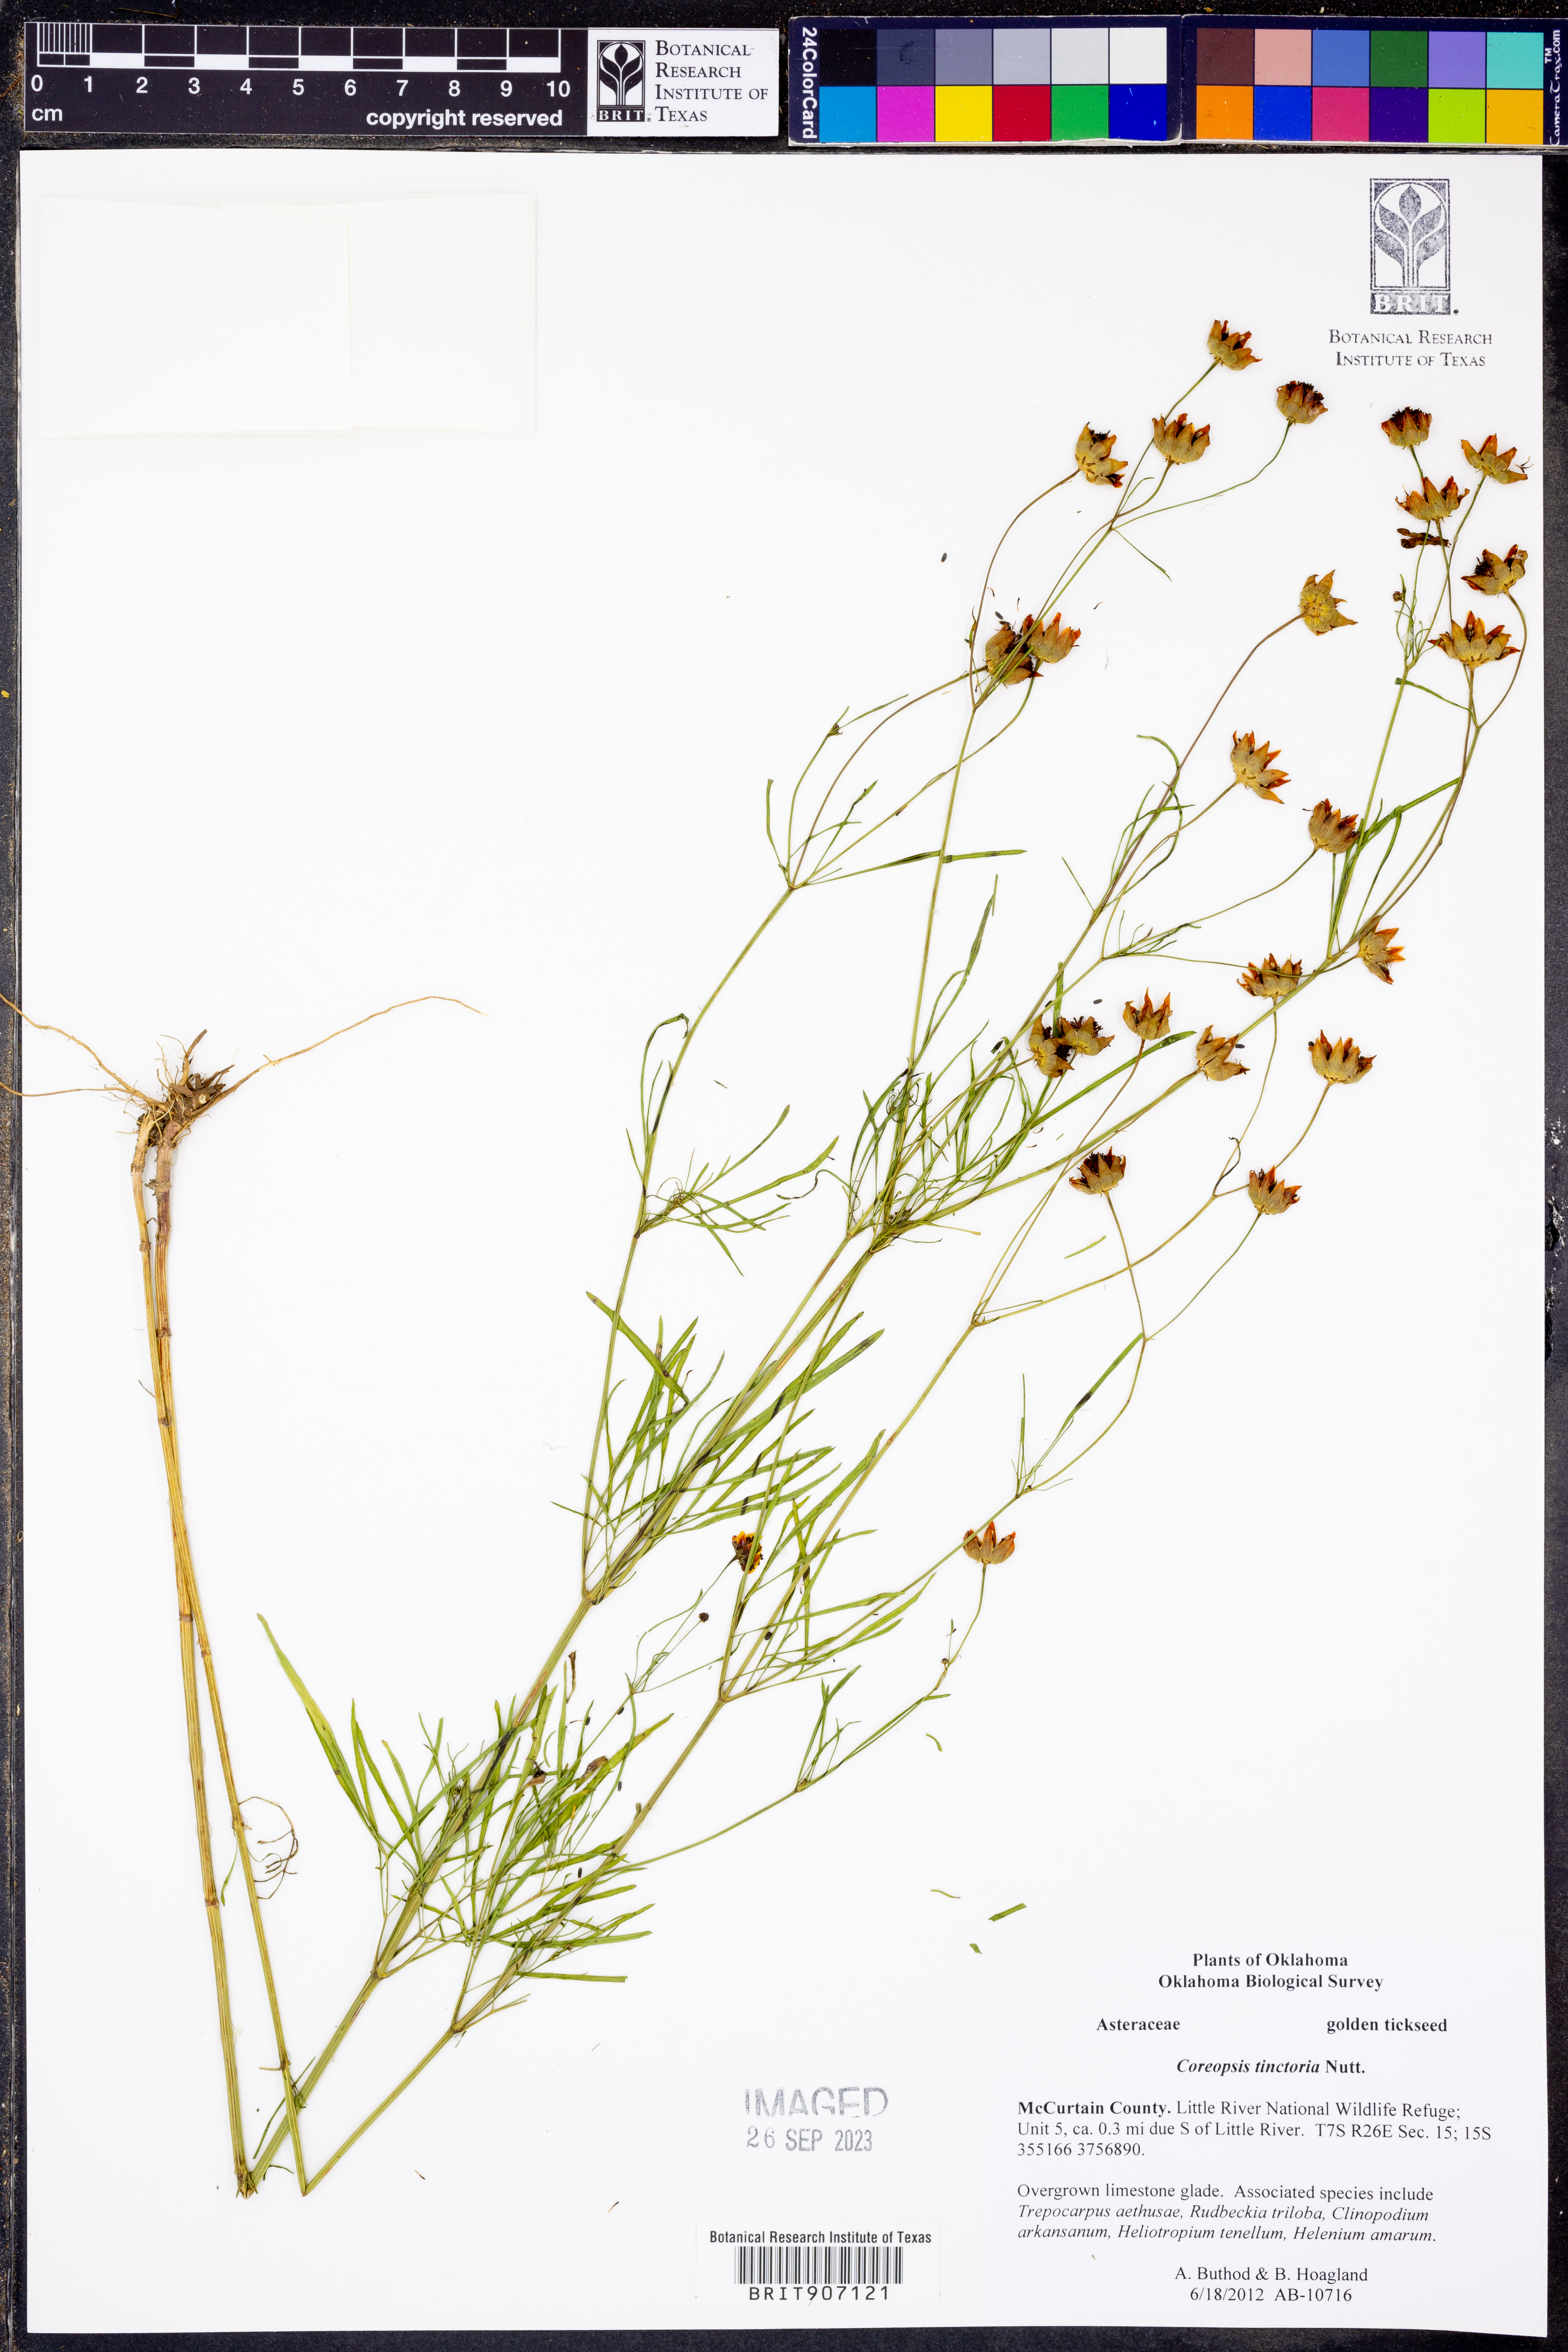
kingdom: Plantae
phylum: Tracheophyta
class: Magnoliopsida
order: Asterales
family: Asteraceae
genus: Coreopsis
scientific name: Coreopsis tinctoria
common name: Garden tickseed
